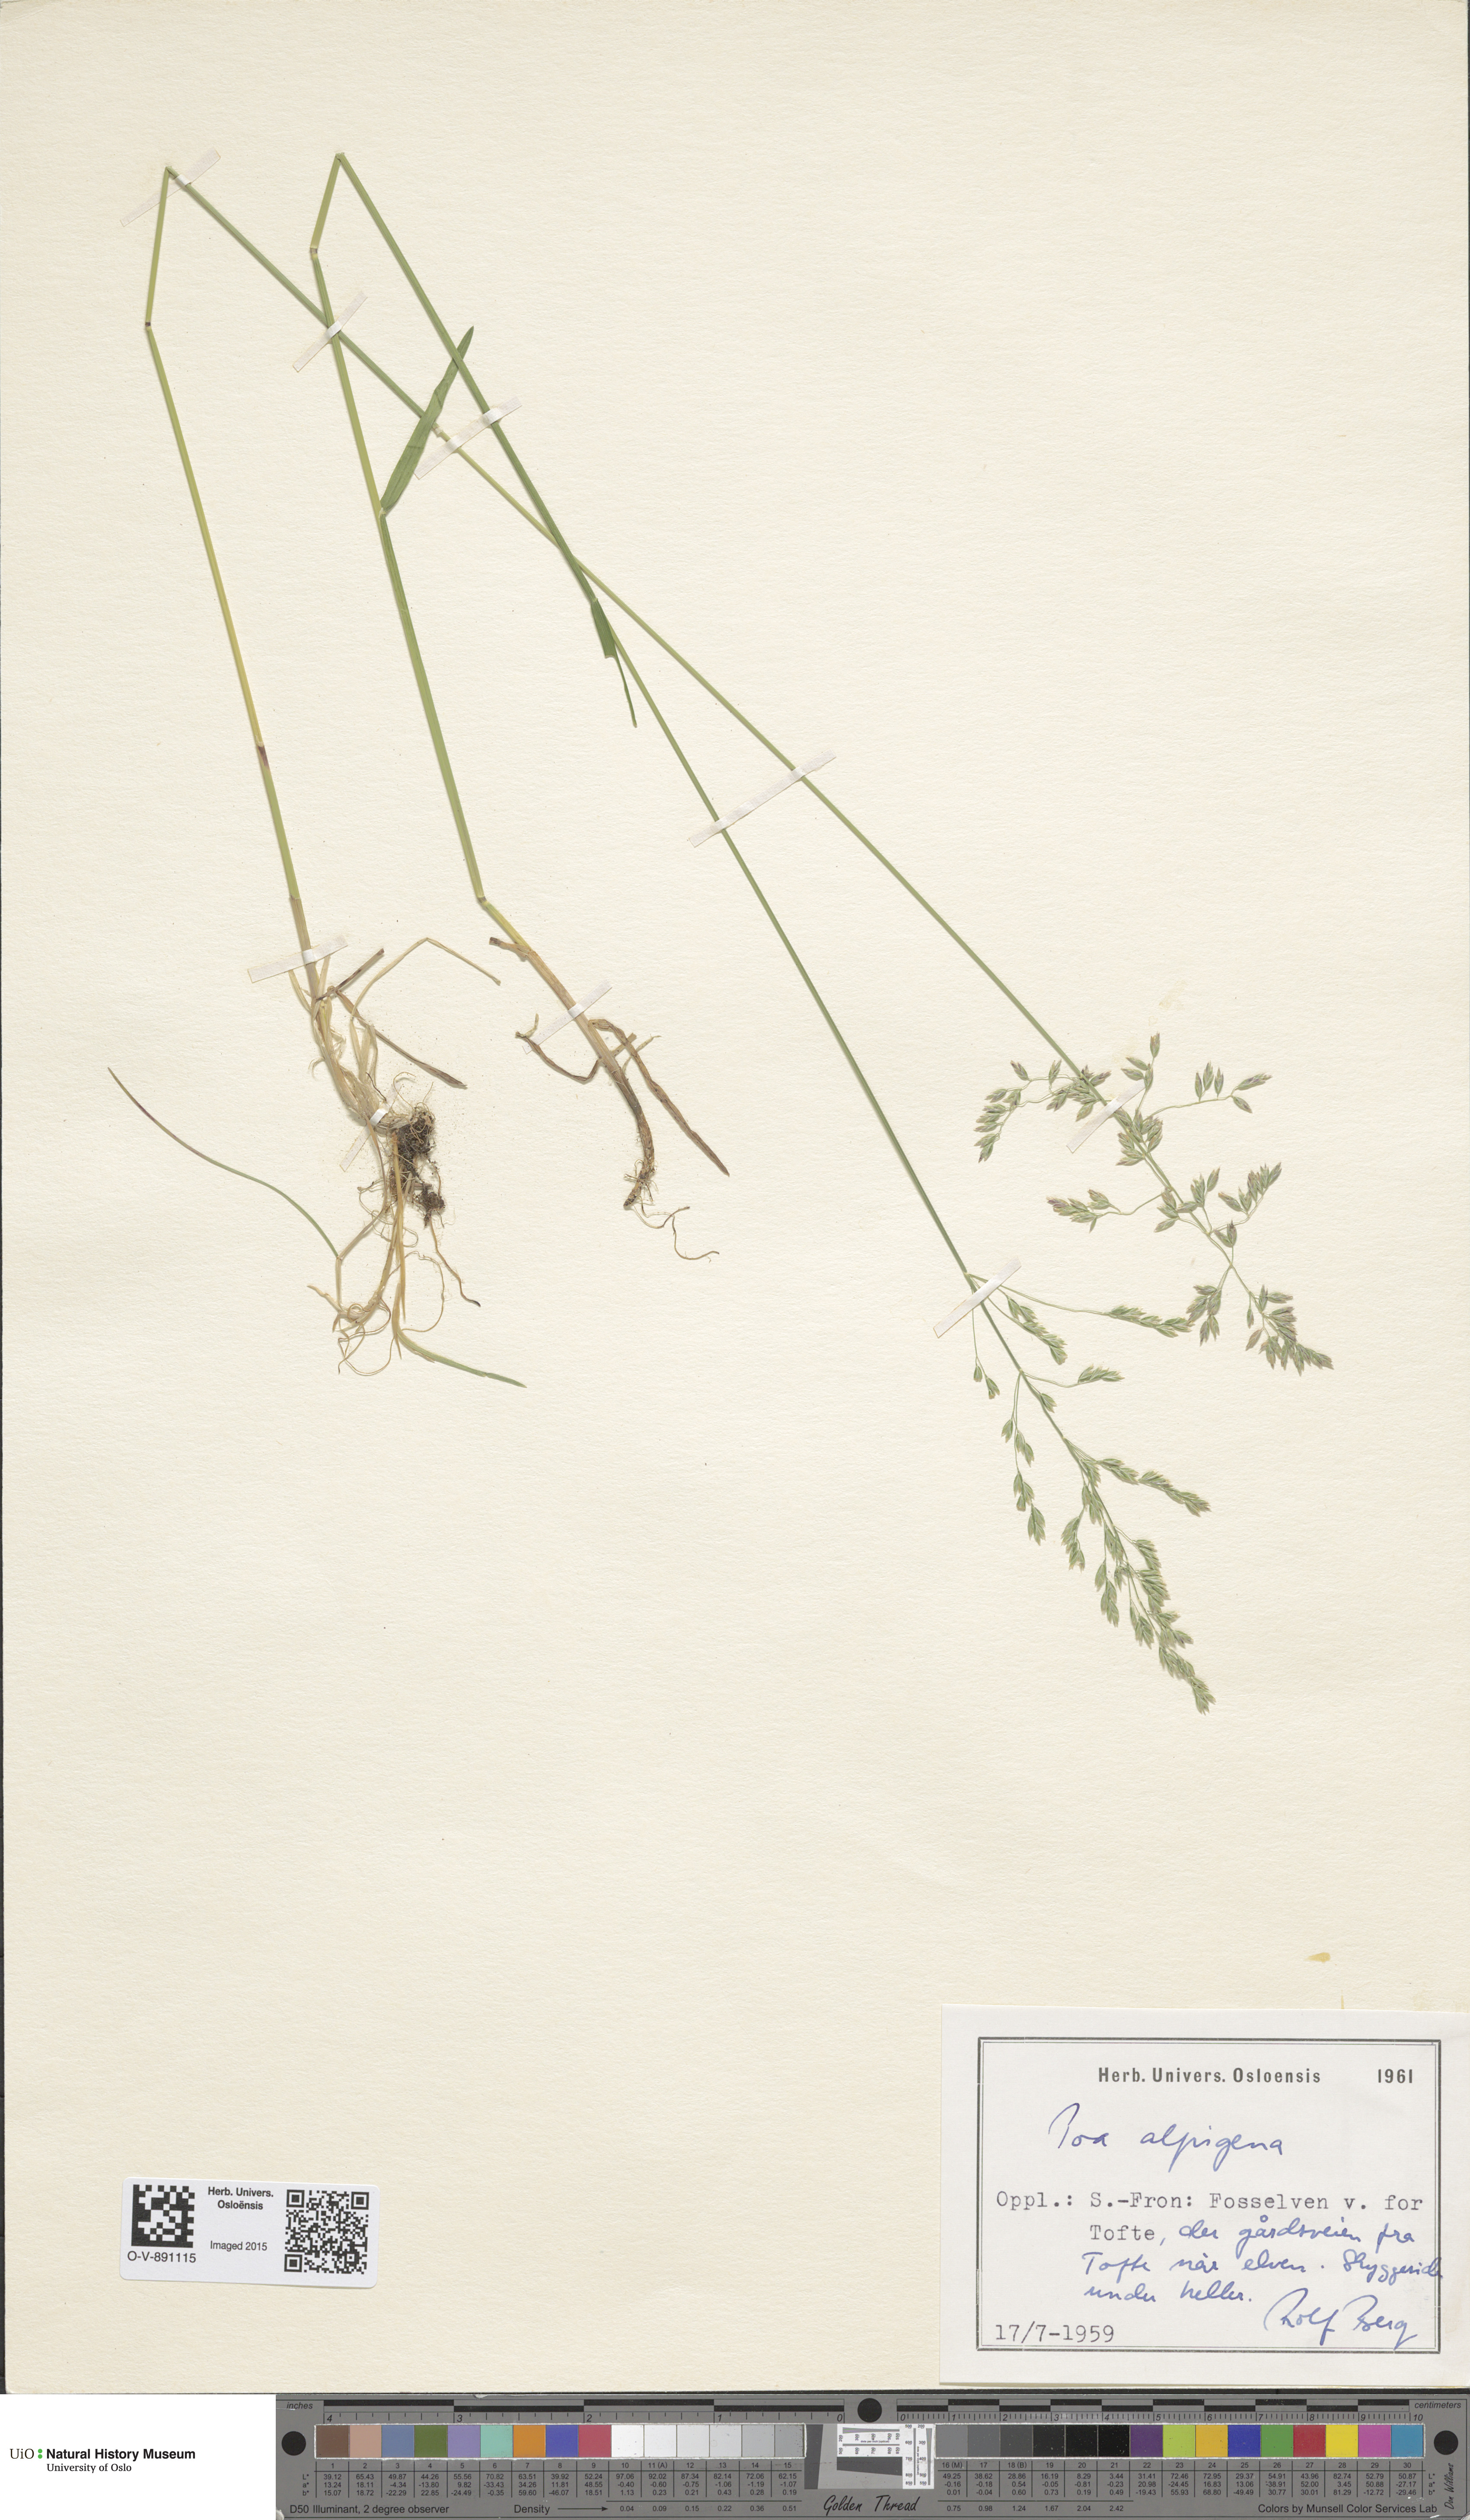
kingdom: Plantae
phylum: Tracheophyta
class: Liliopsida
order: Poales
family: Poaceae
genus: Poa
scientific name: Poa alpigena
